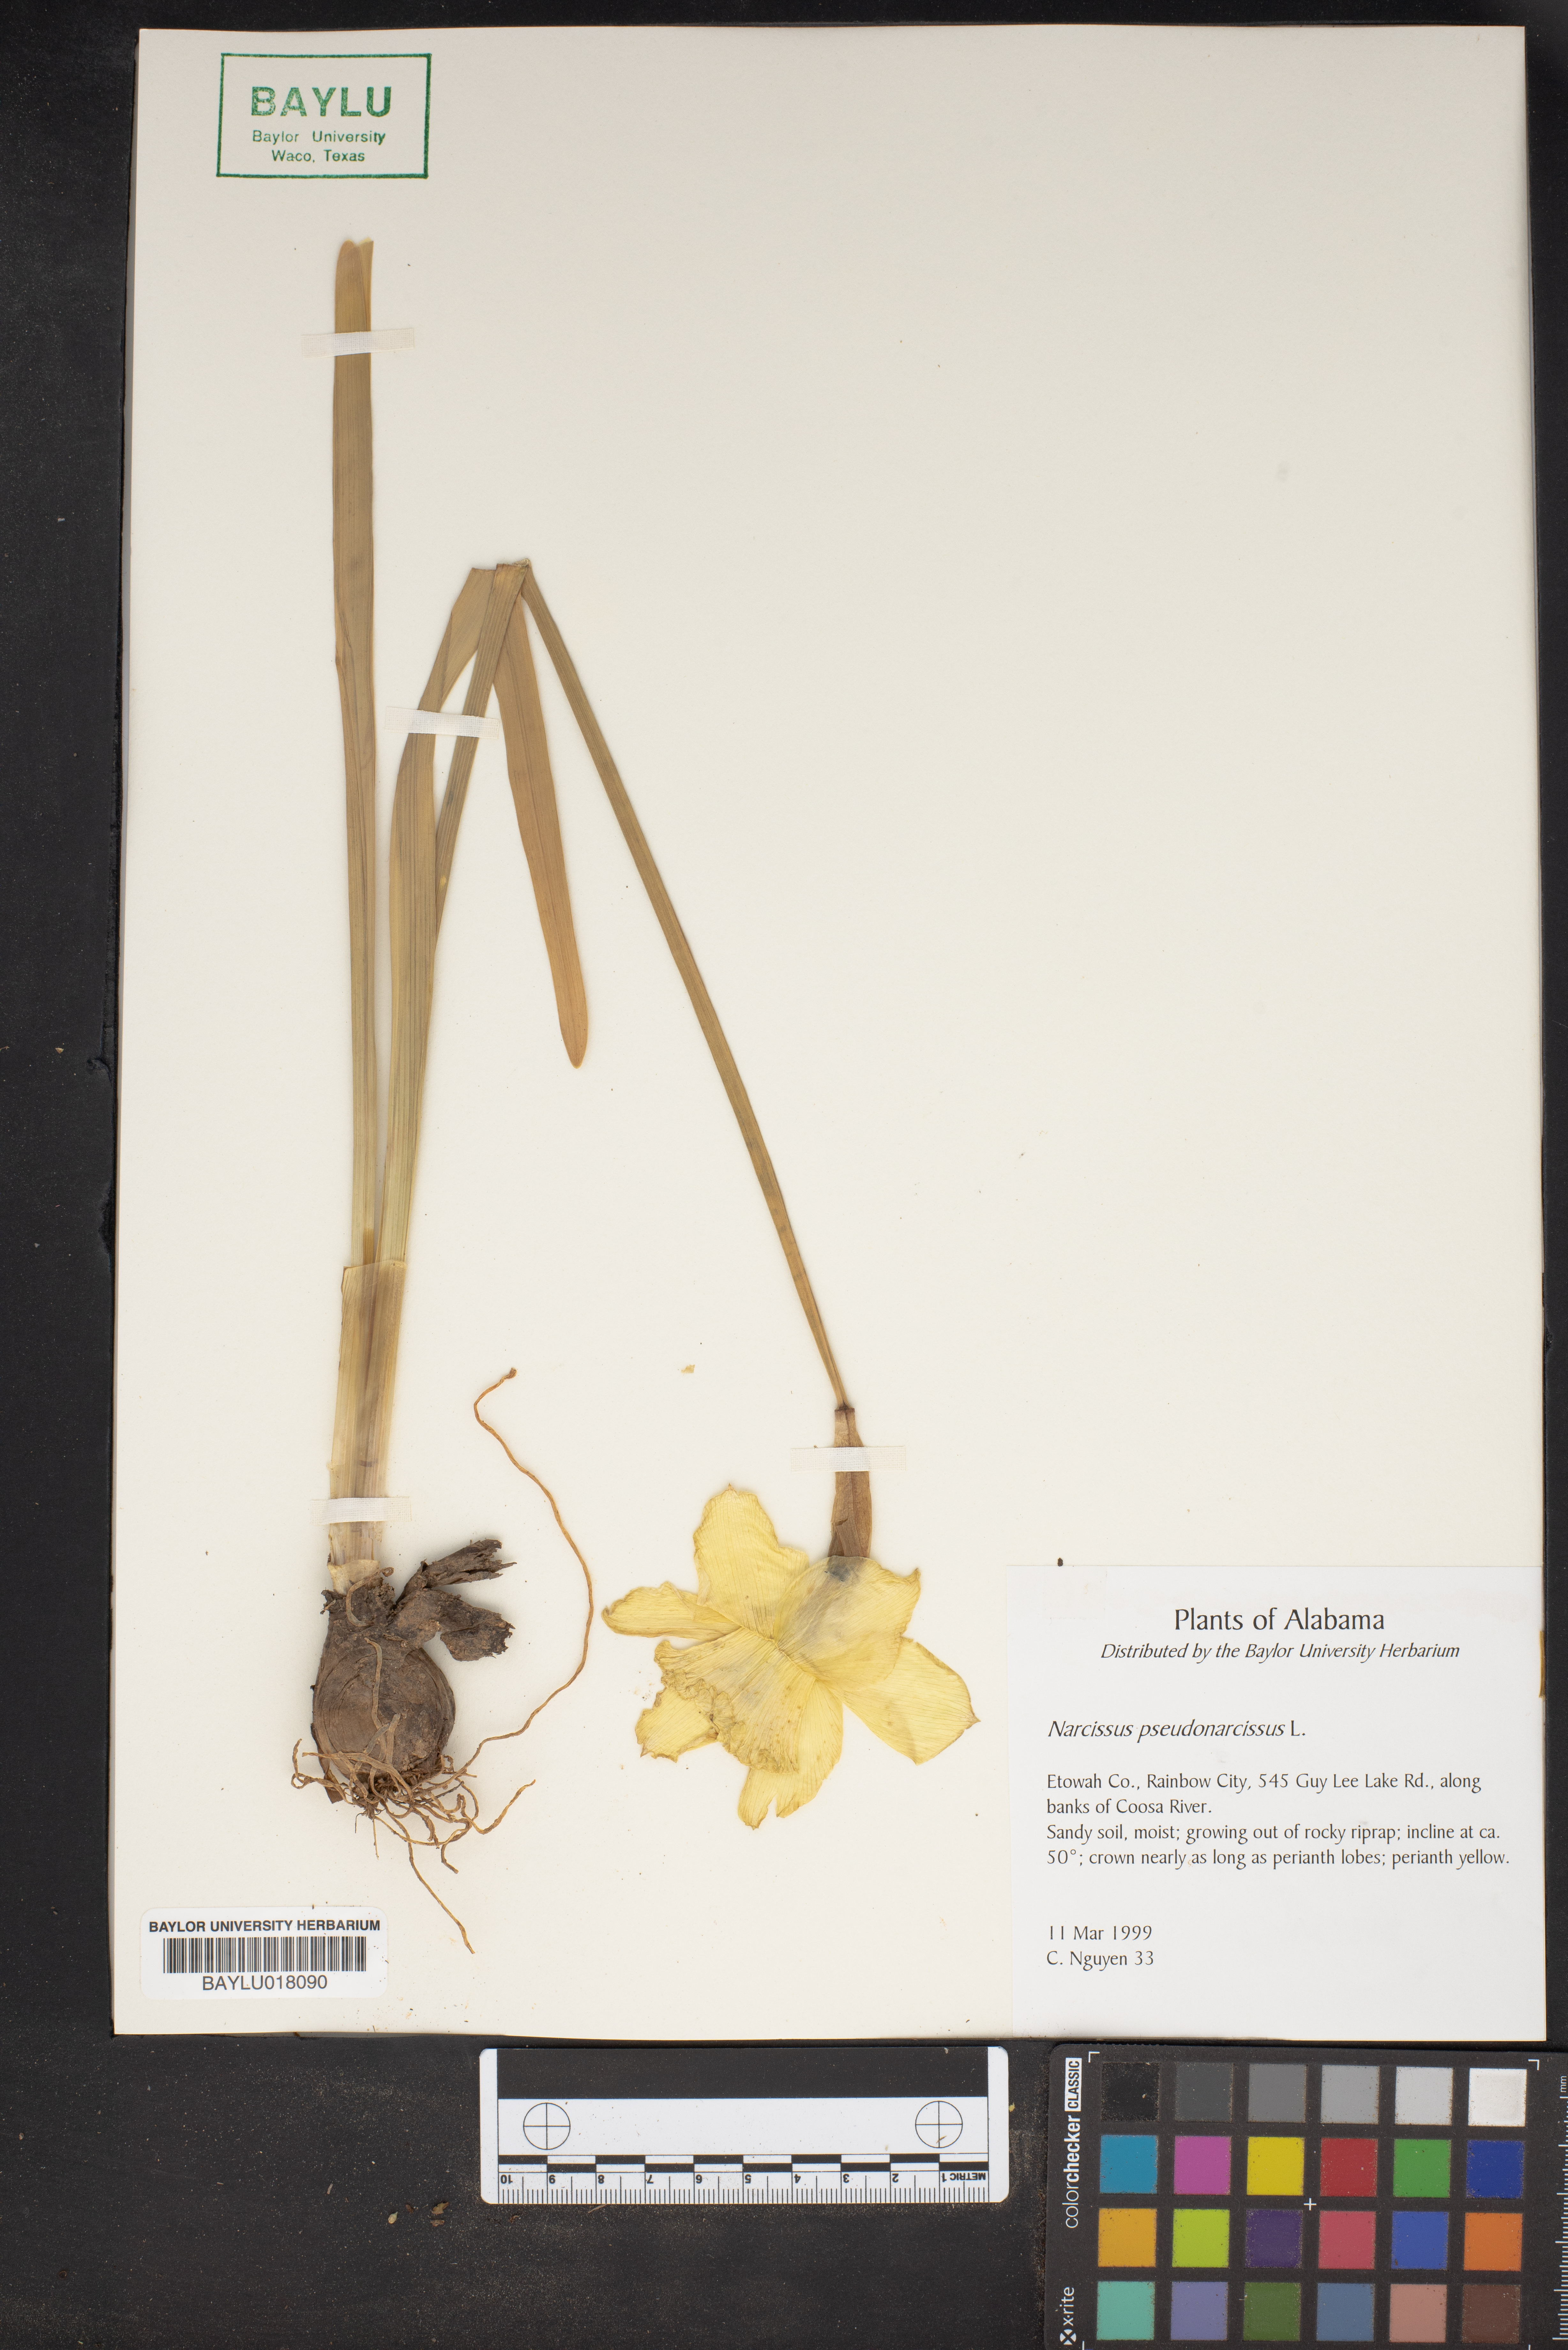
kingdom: Plantae
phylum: Tracheophyta
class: Liliopsida
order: Asparagales
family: Amaryllidaceae
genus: Narcissus
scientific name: Narcissus pseudonarcissus
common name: Daffodil
